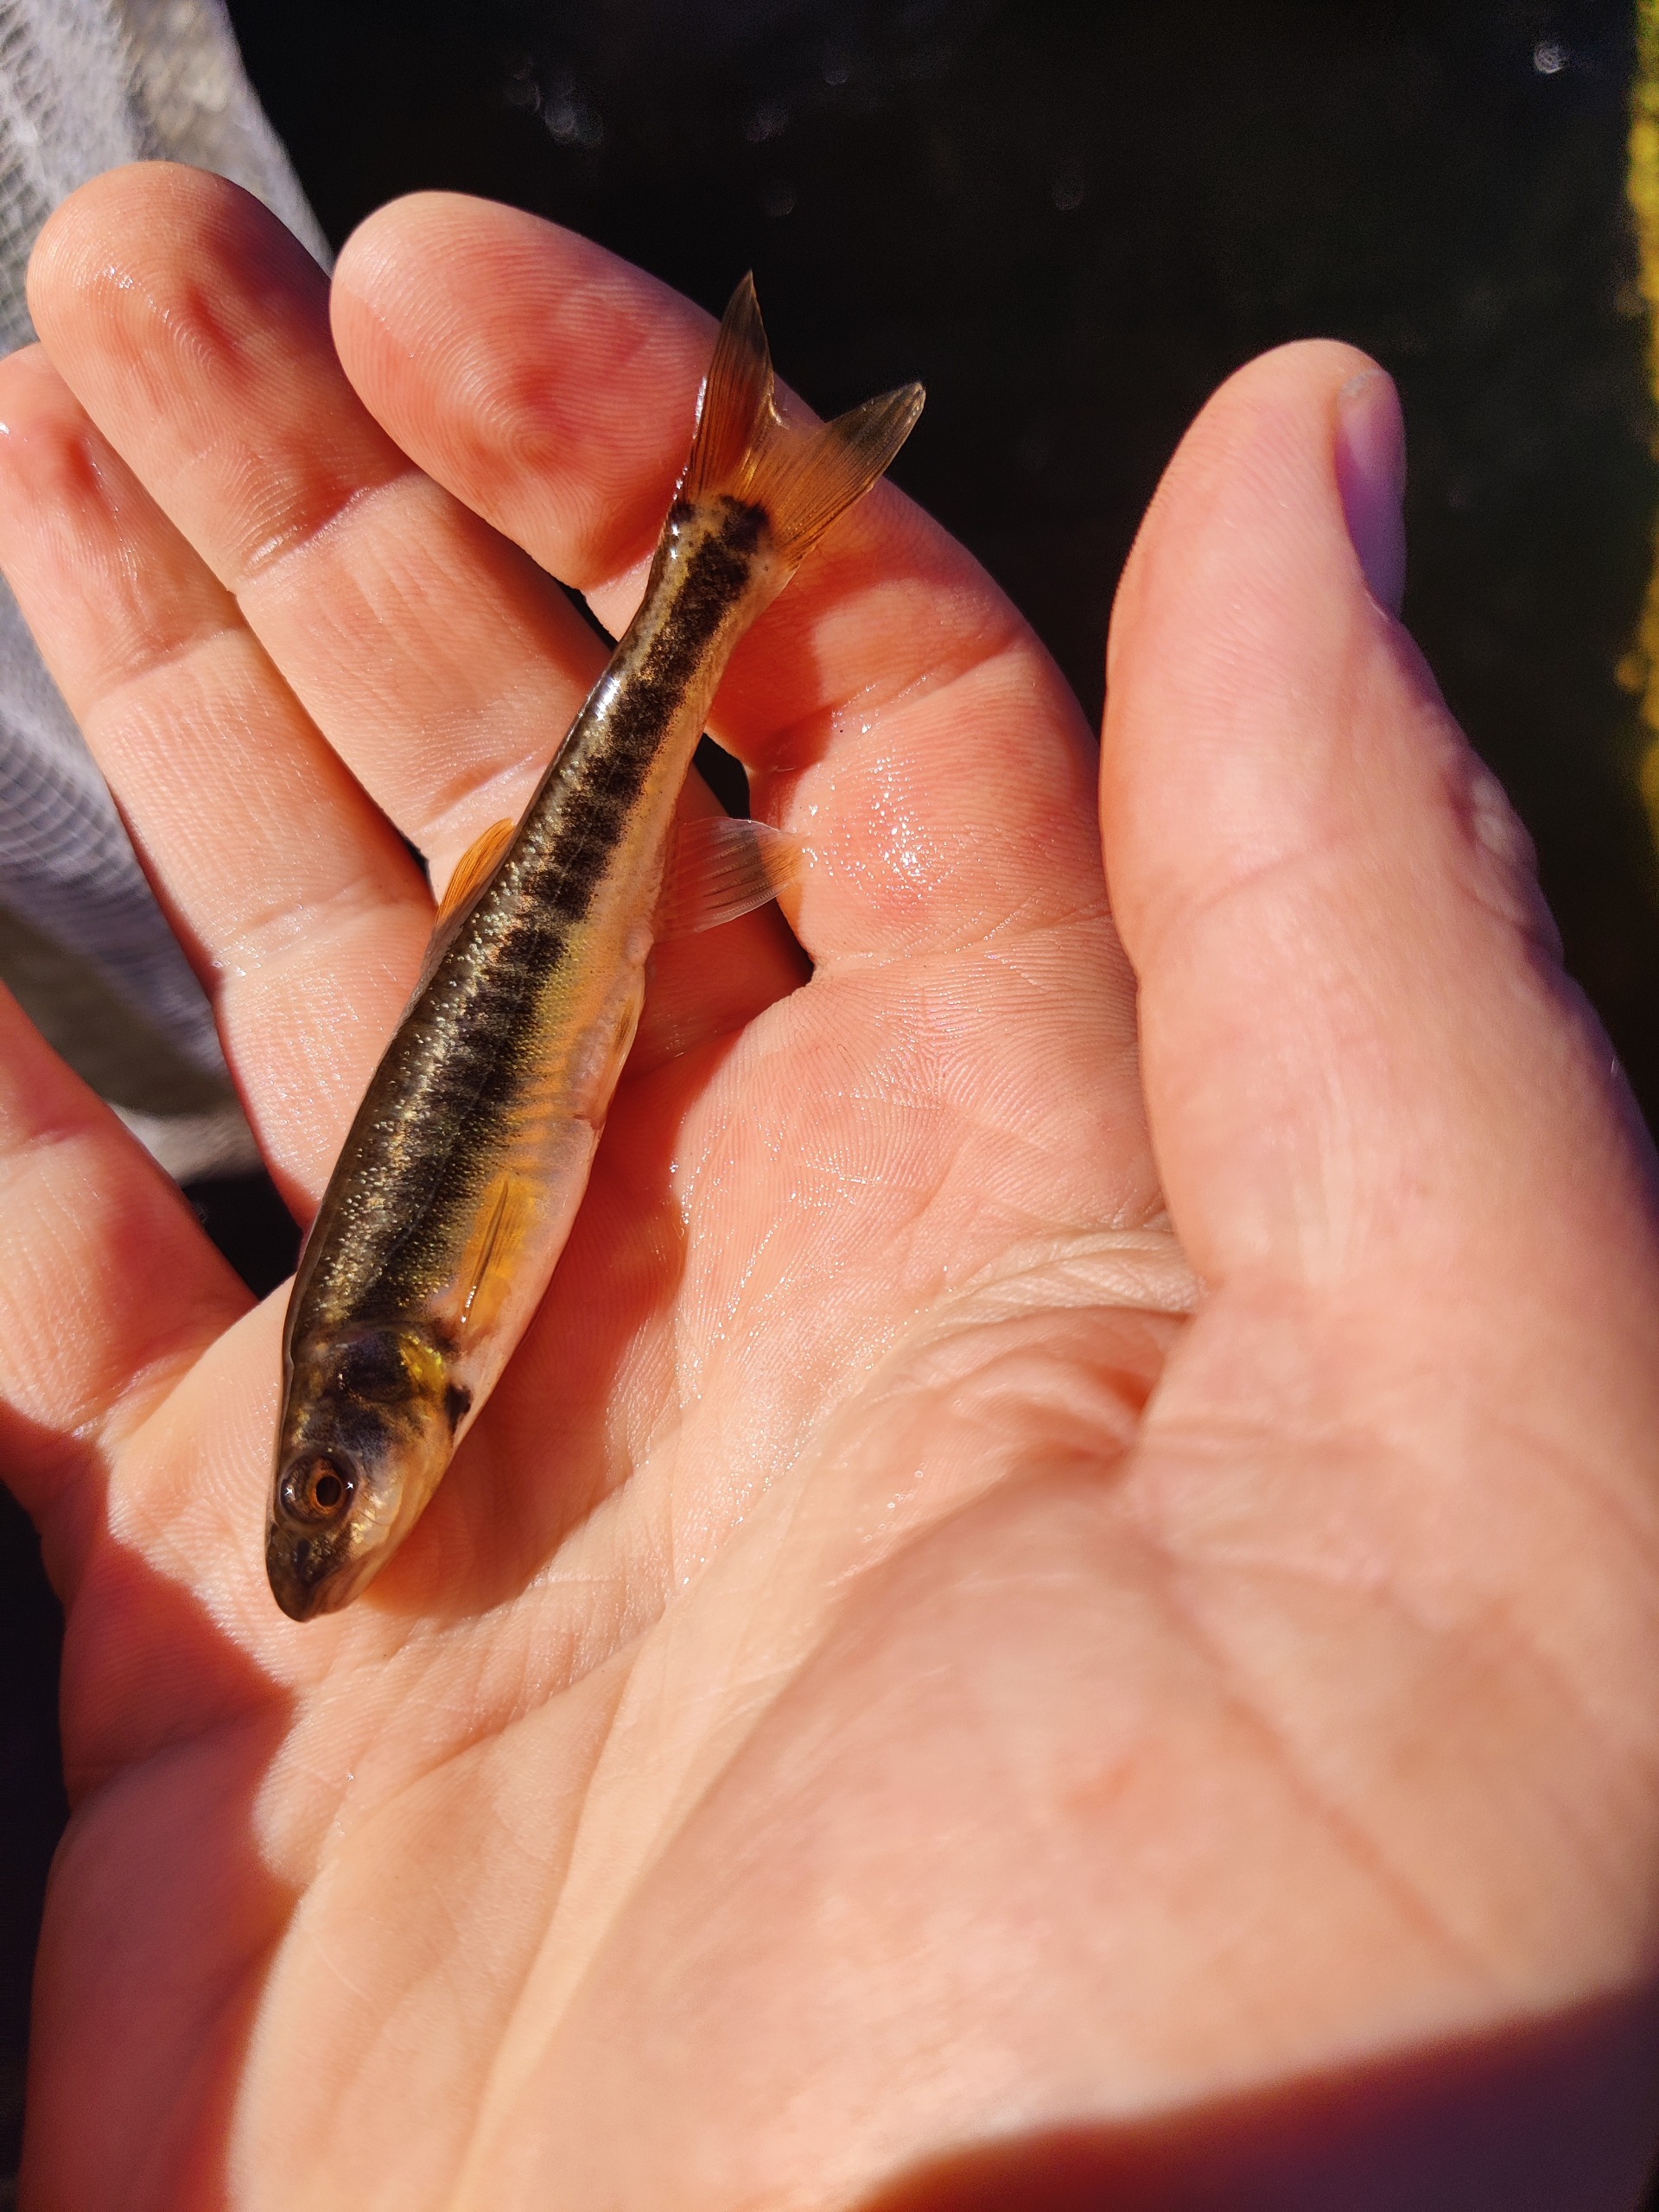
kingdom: Animalia
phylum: Chordata
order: Cypriniformes
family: Cyprinidae
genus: Phoxinus
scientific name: Phoxinus phoxinus
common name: Elritse
